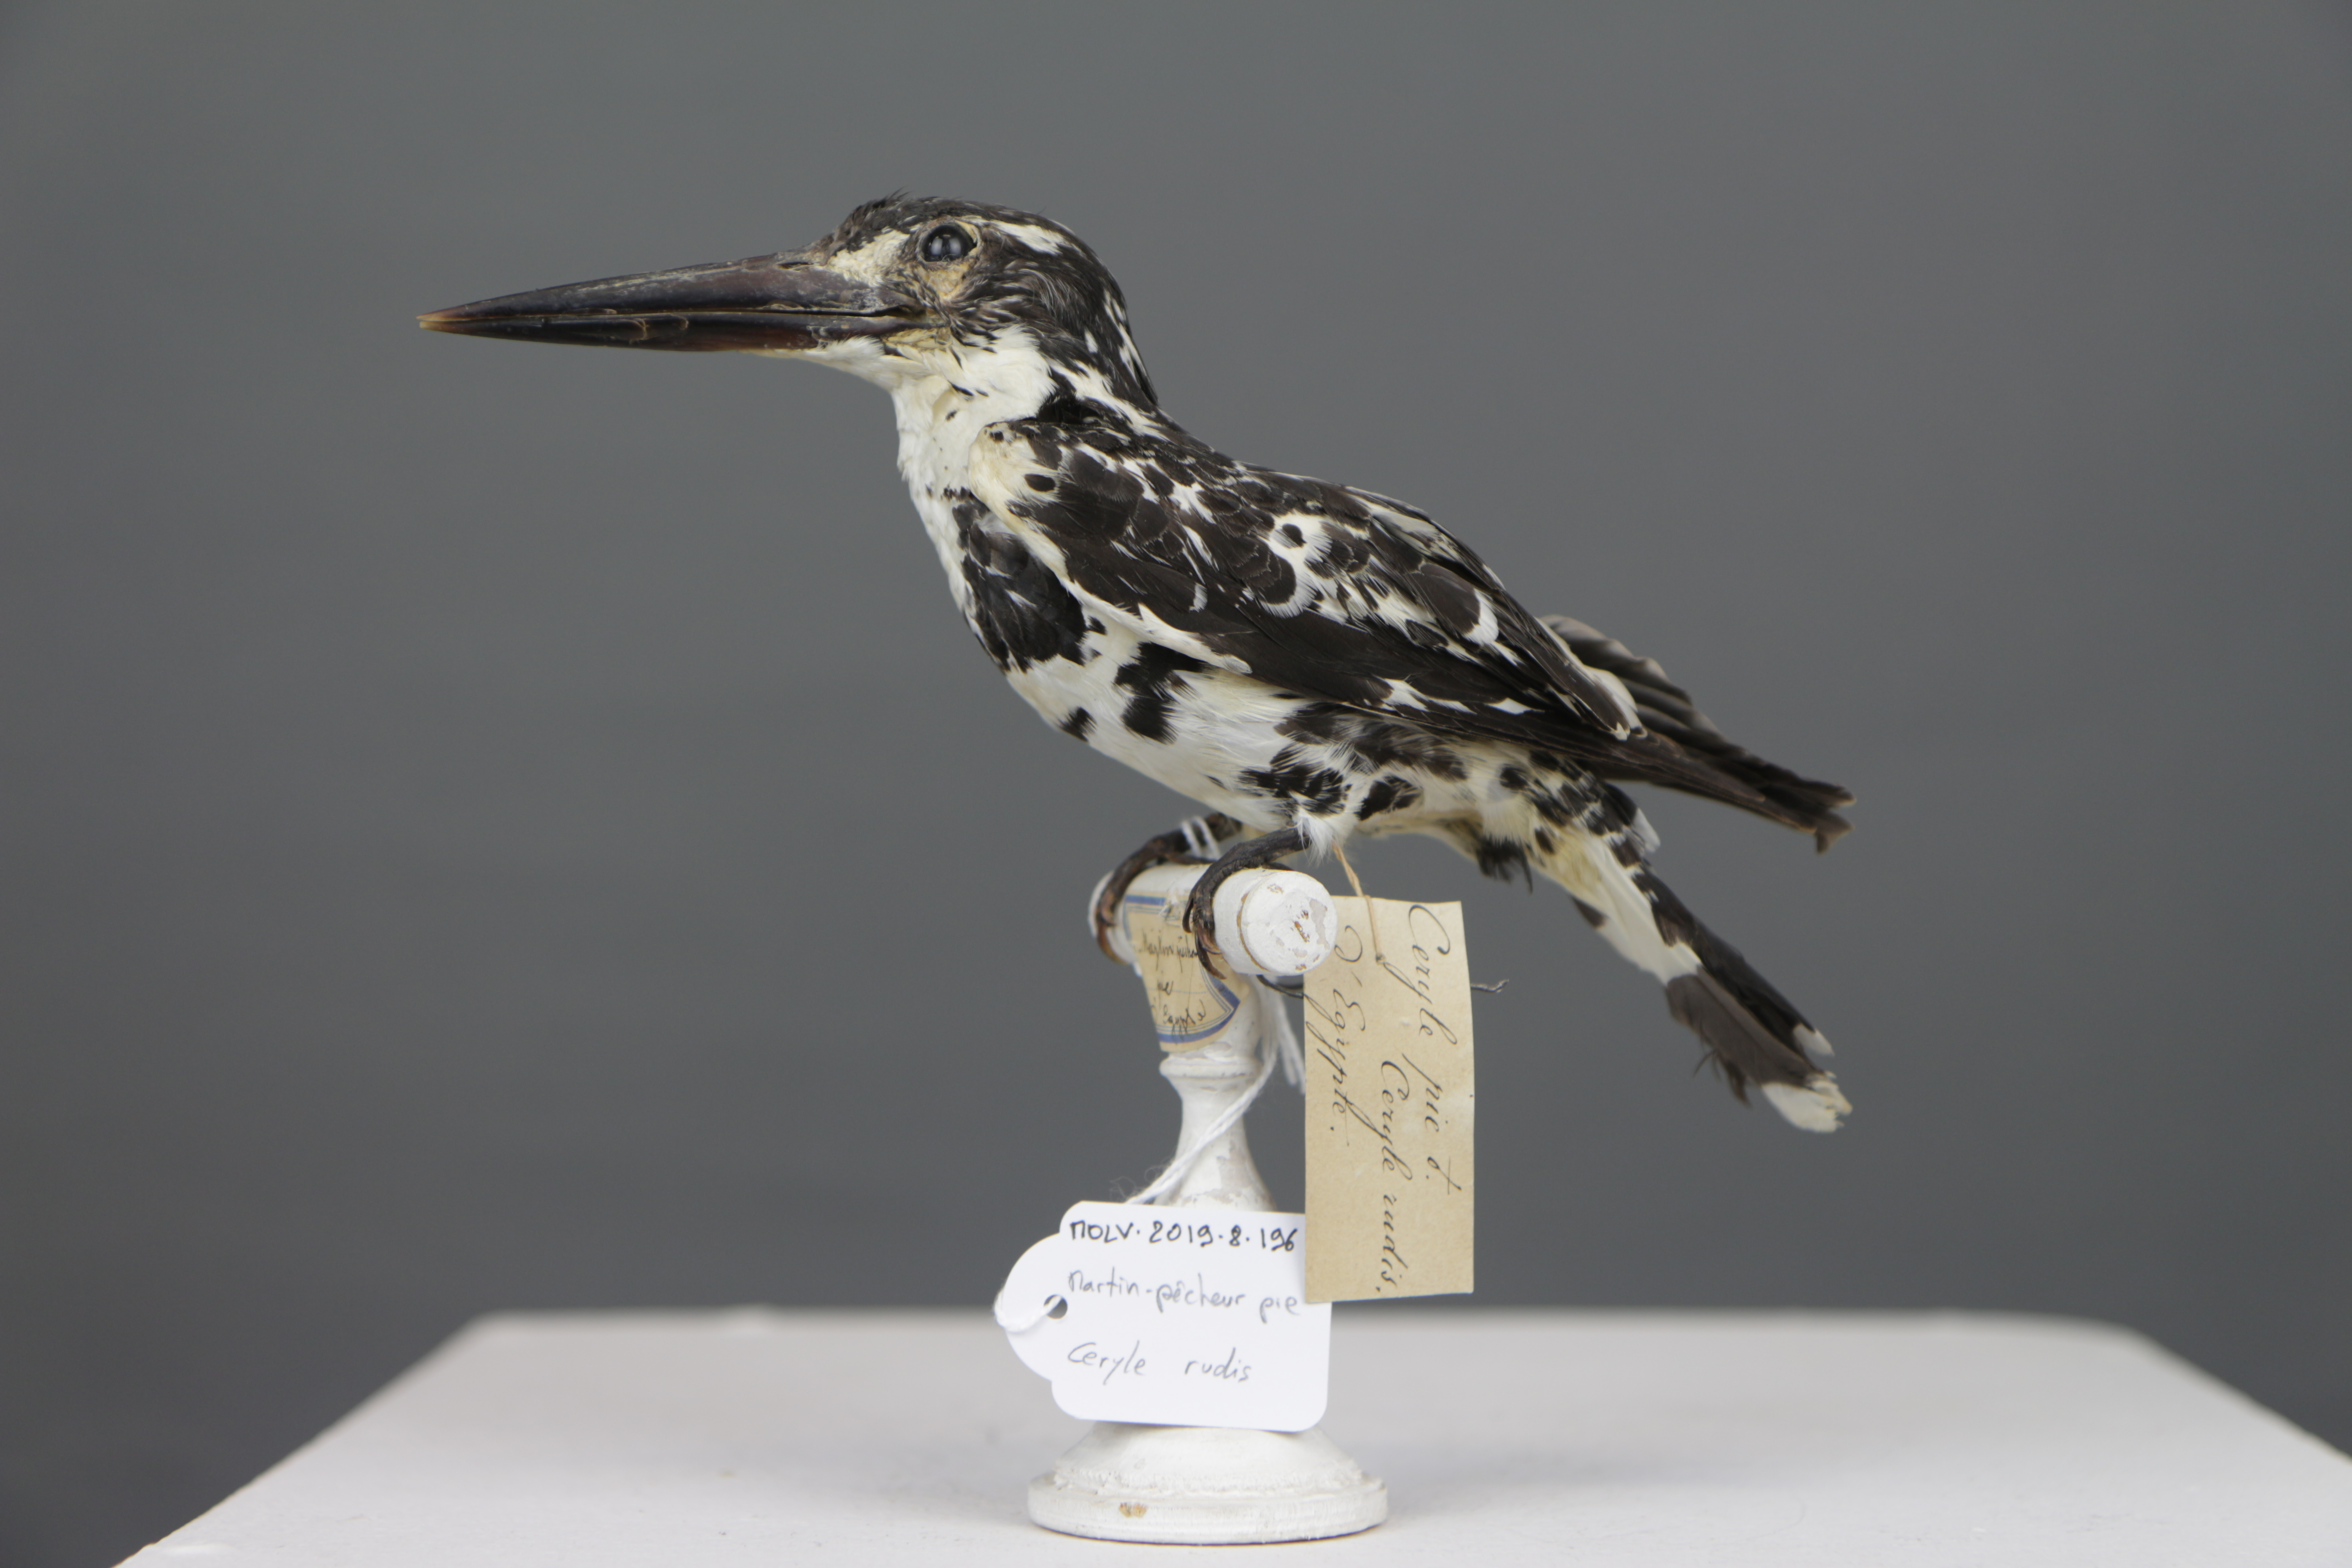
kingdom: Animalia
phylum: Chordata
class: Aves
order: Coraciiformes
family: Alcedinidae
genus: Ceryle
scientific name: Ceryle rudis
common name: Pied kingfisher
